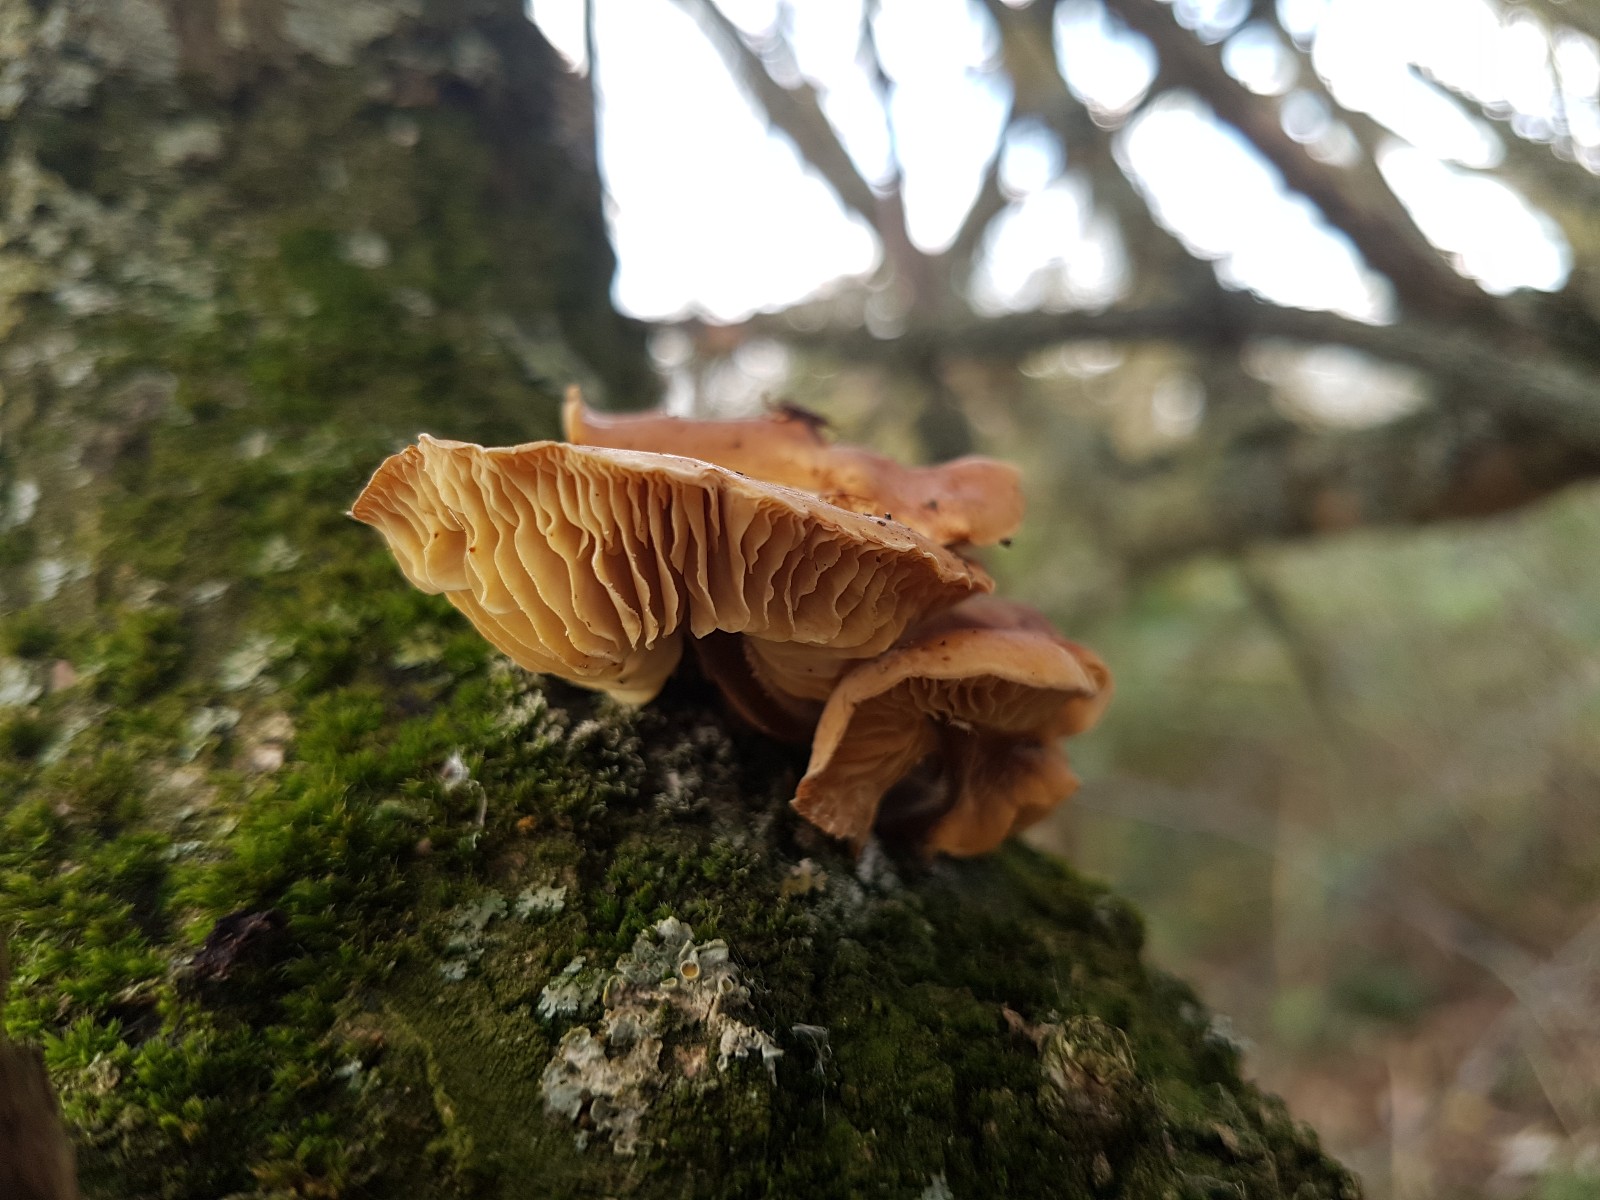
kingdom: Fungi
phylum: Basidiomycota
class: Agaricomycetes
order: Agaricales
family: Physalacriaceae
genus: Flammulina
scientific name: Flammulina
